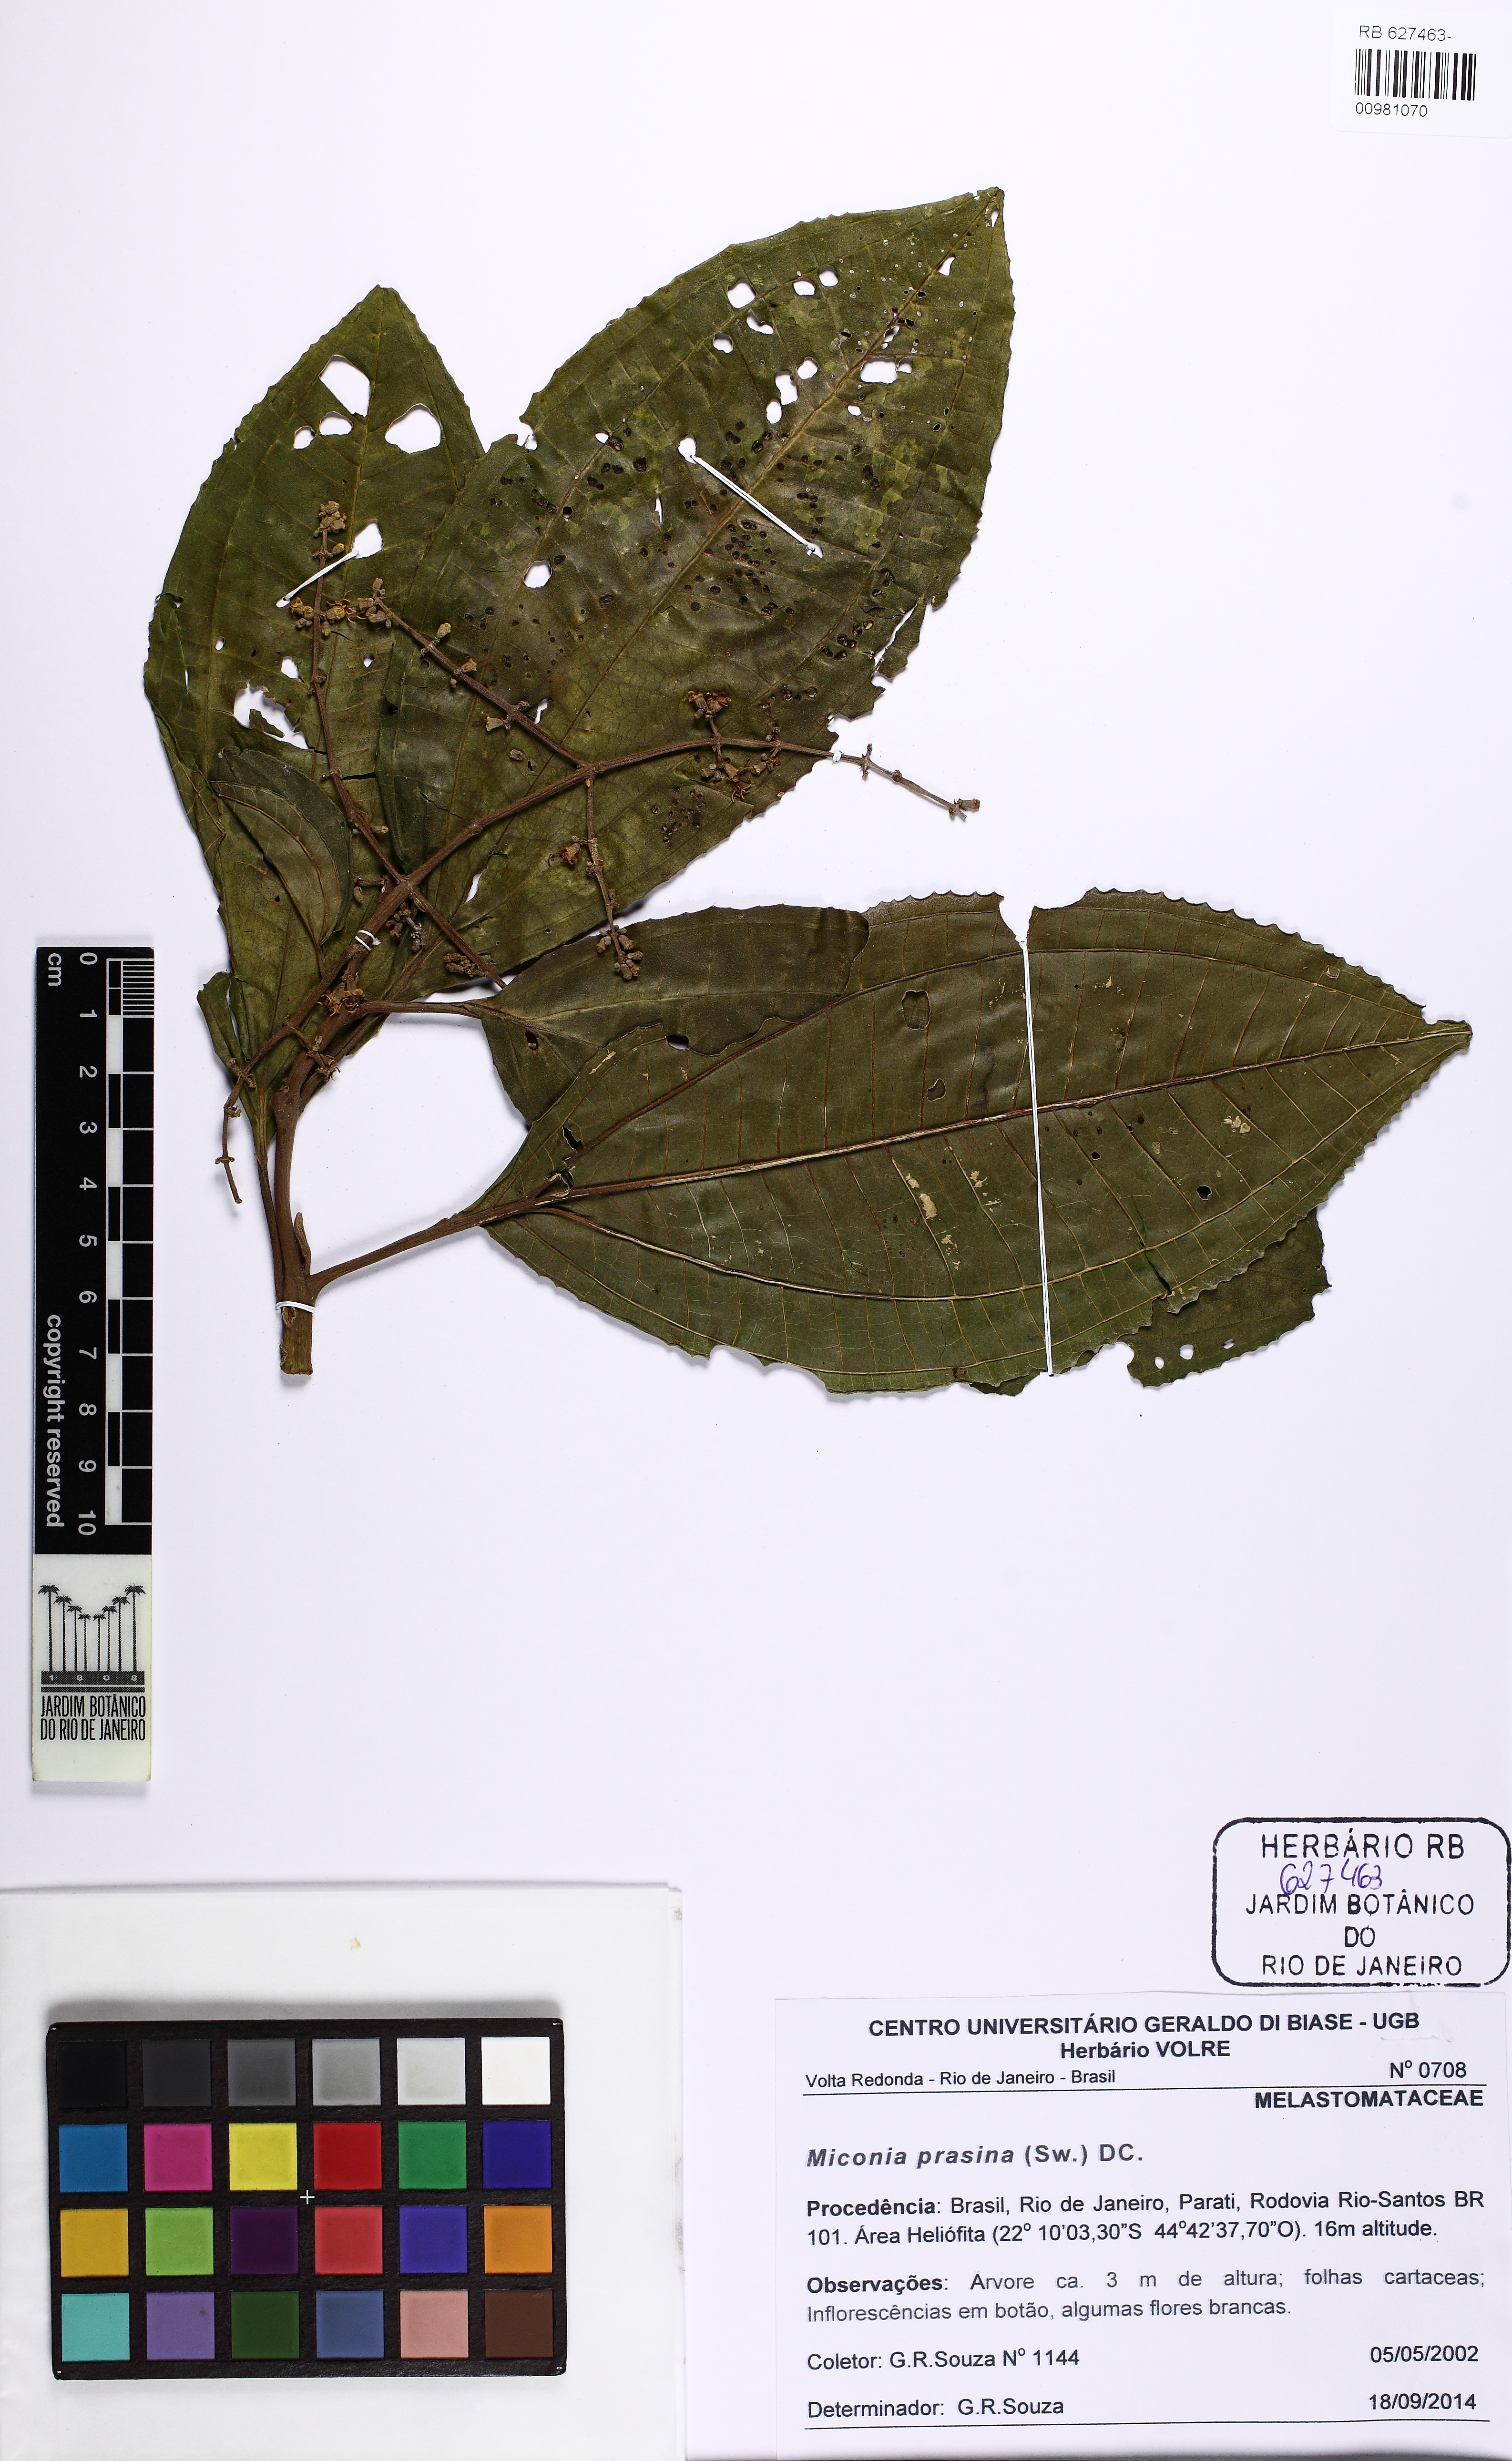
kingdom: Plantae
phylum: Tracheophyta
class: Magnoliopsida
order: Myrtales
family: Melastomataceae
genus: Miconia
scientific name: Miconia prasina
